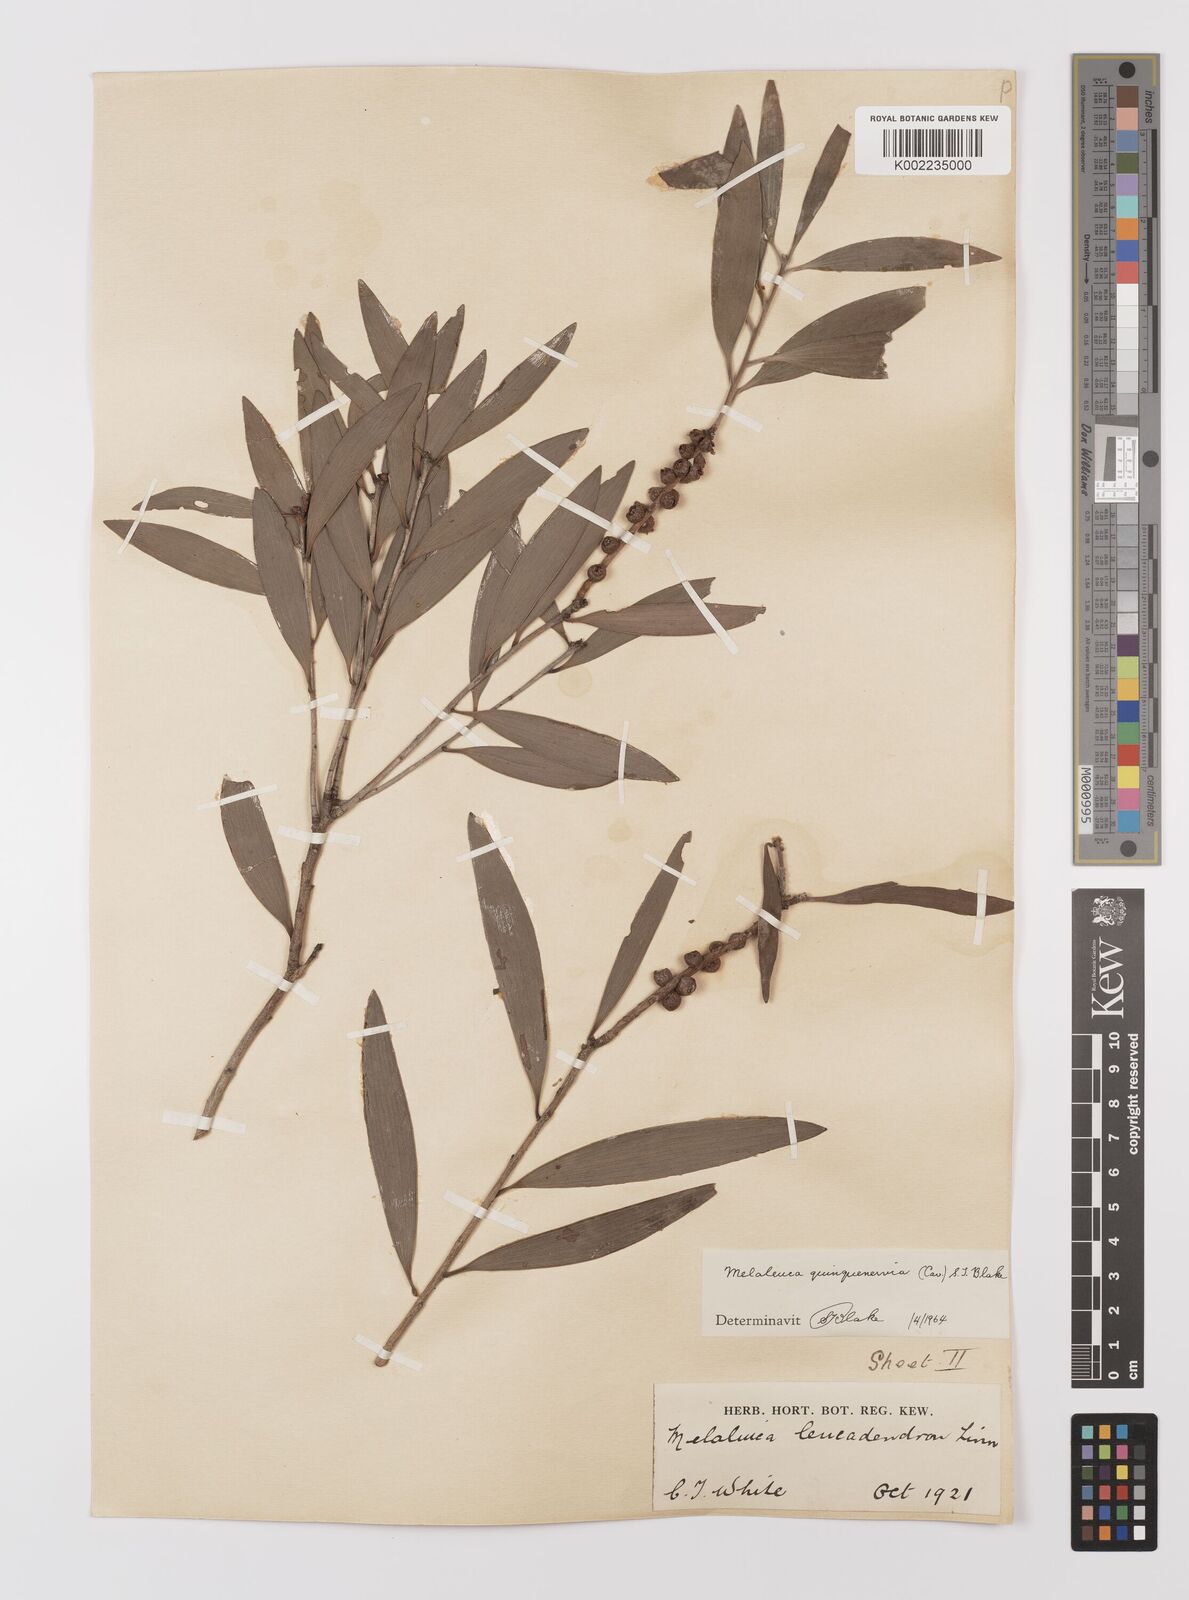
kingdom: Plantae
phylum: Tracheophyta
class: Magnoliopsida
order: Myrtales
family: Myrtaceae
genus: Melaleuca
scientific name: Melaleuca quinquenervia
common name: Punktree
